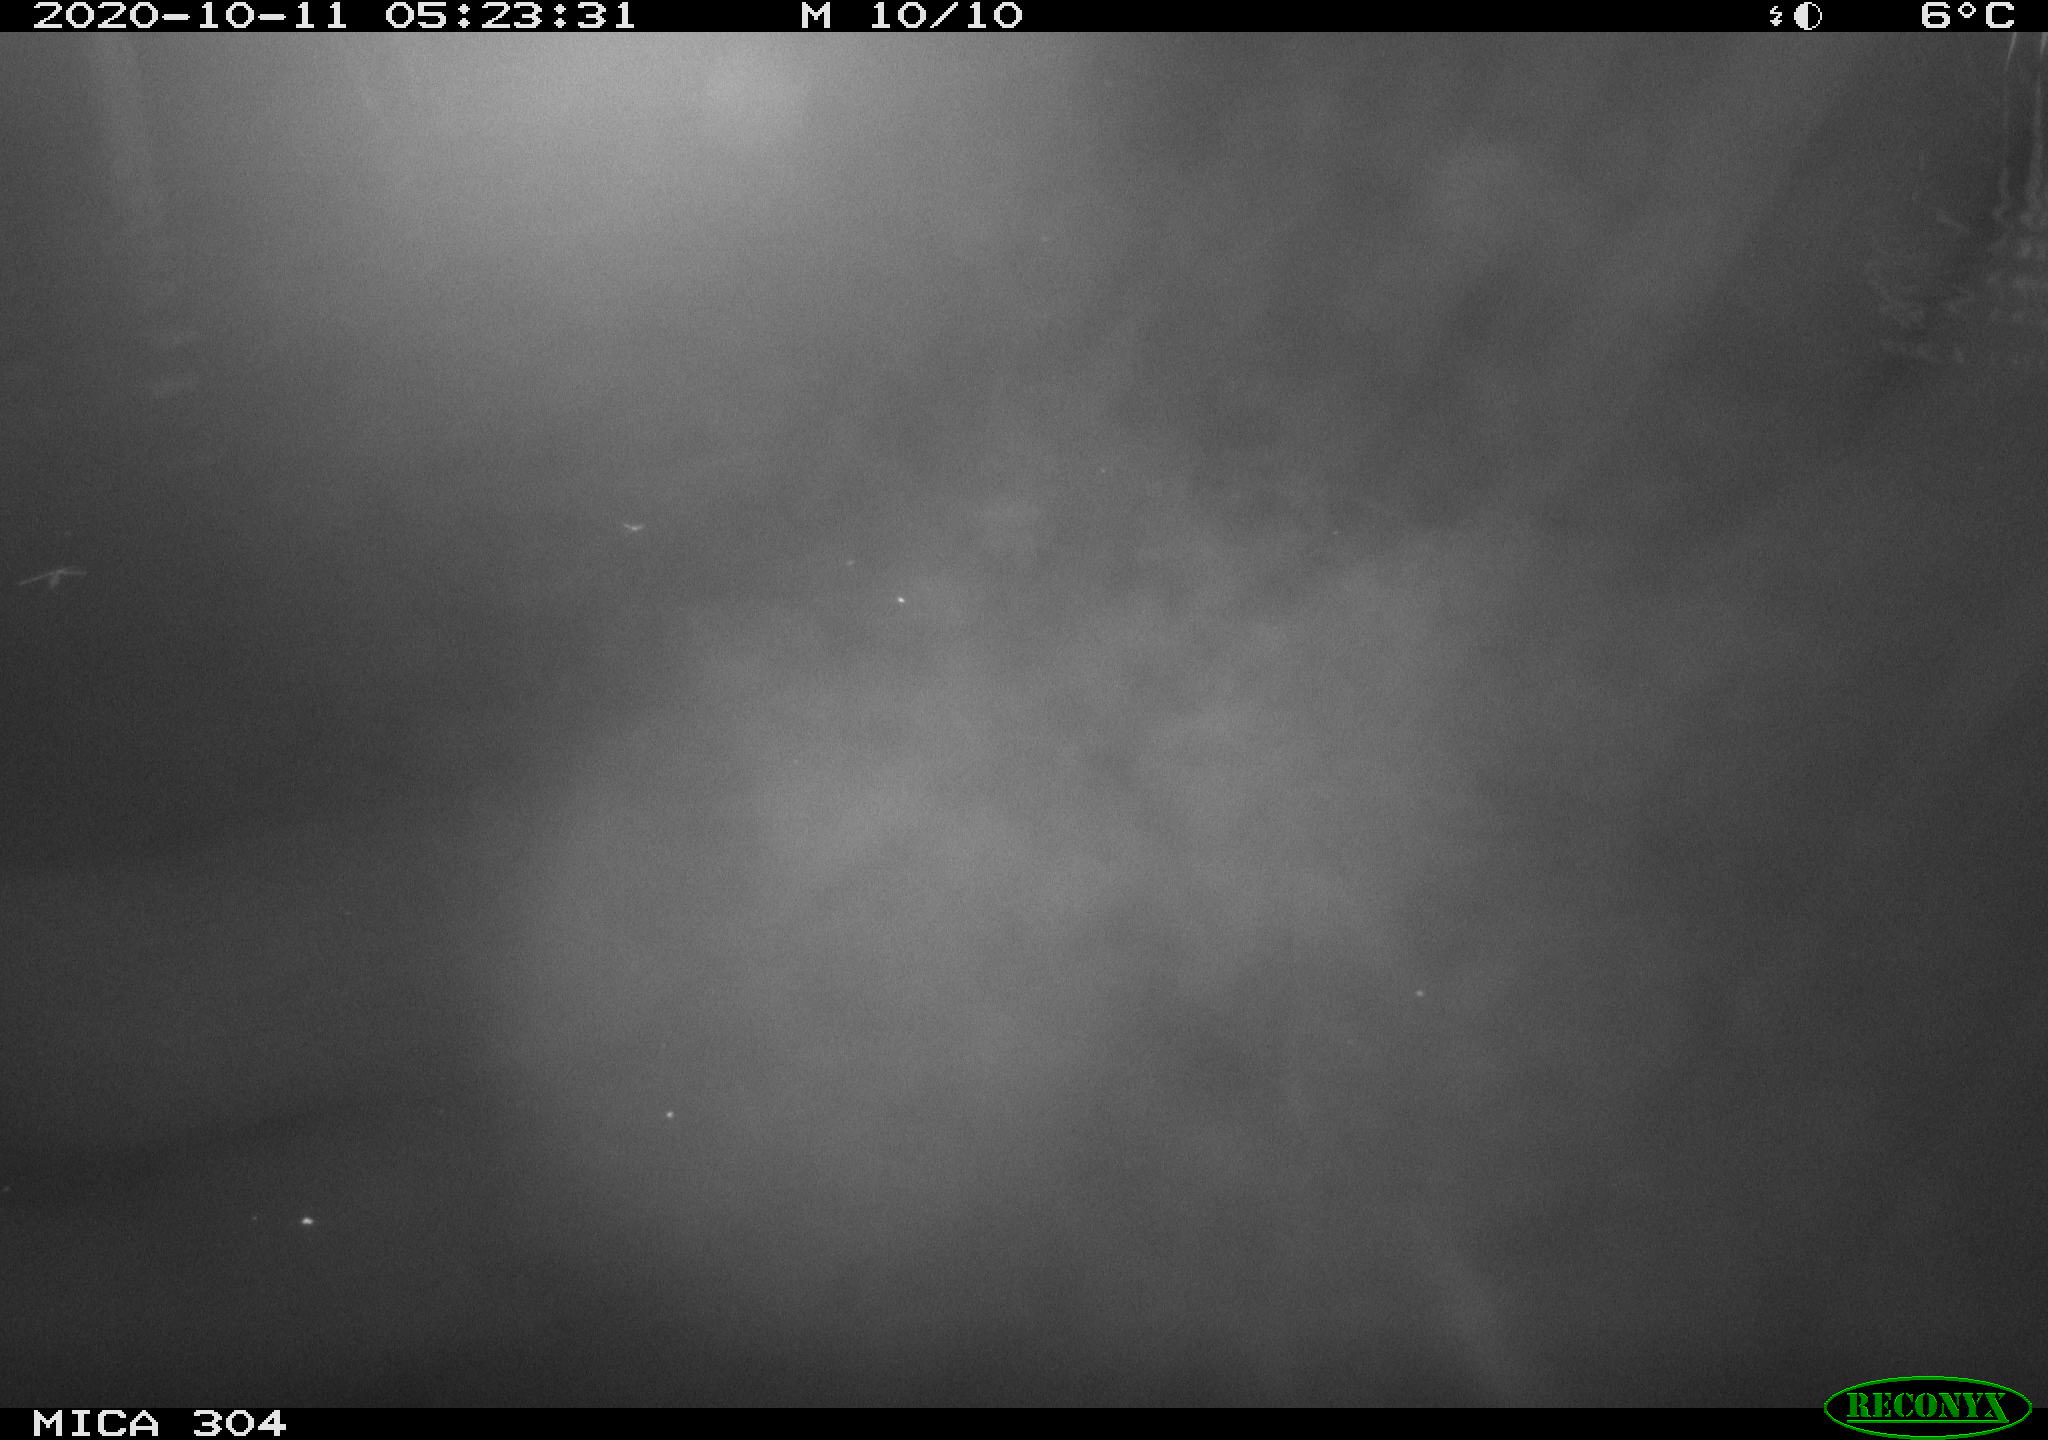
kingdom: Animalia
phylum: Chordata
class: Mammalia
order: Rodentia
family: Muridae
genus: Rattus
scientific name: Rattus norvegicus
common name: Brown rat
